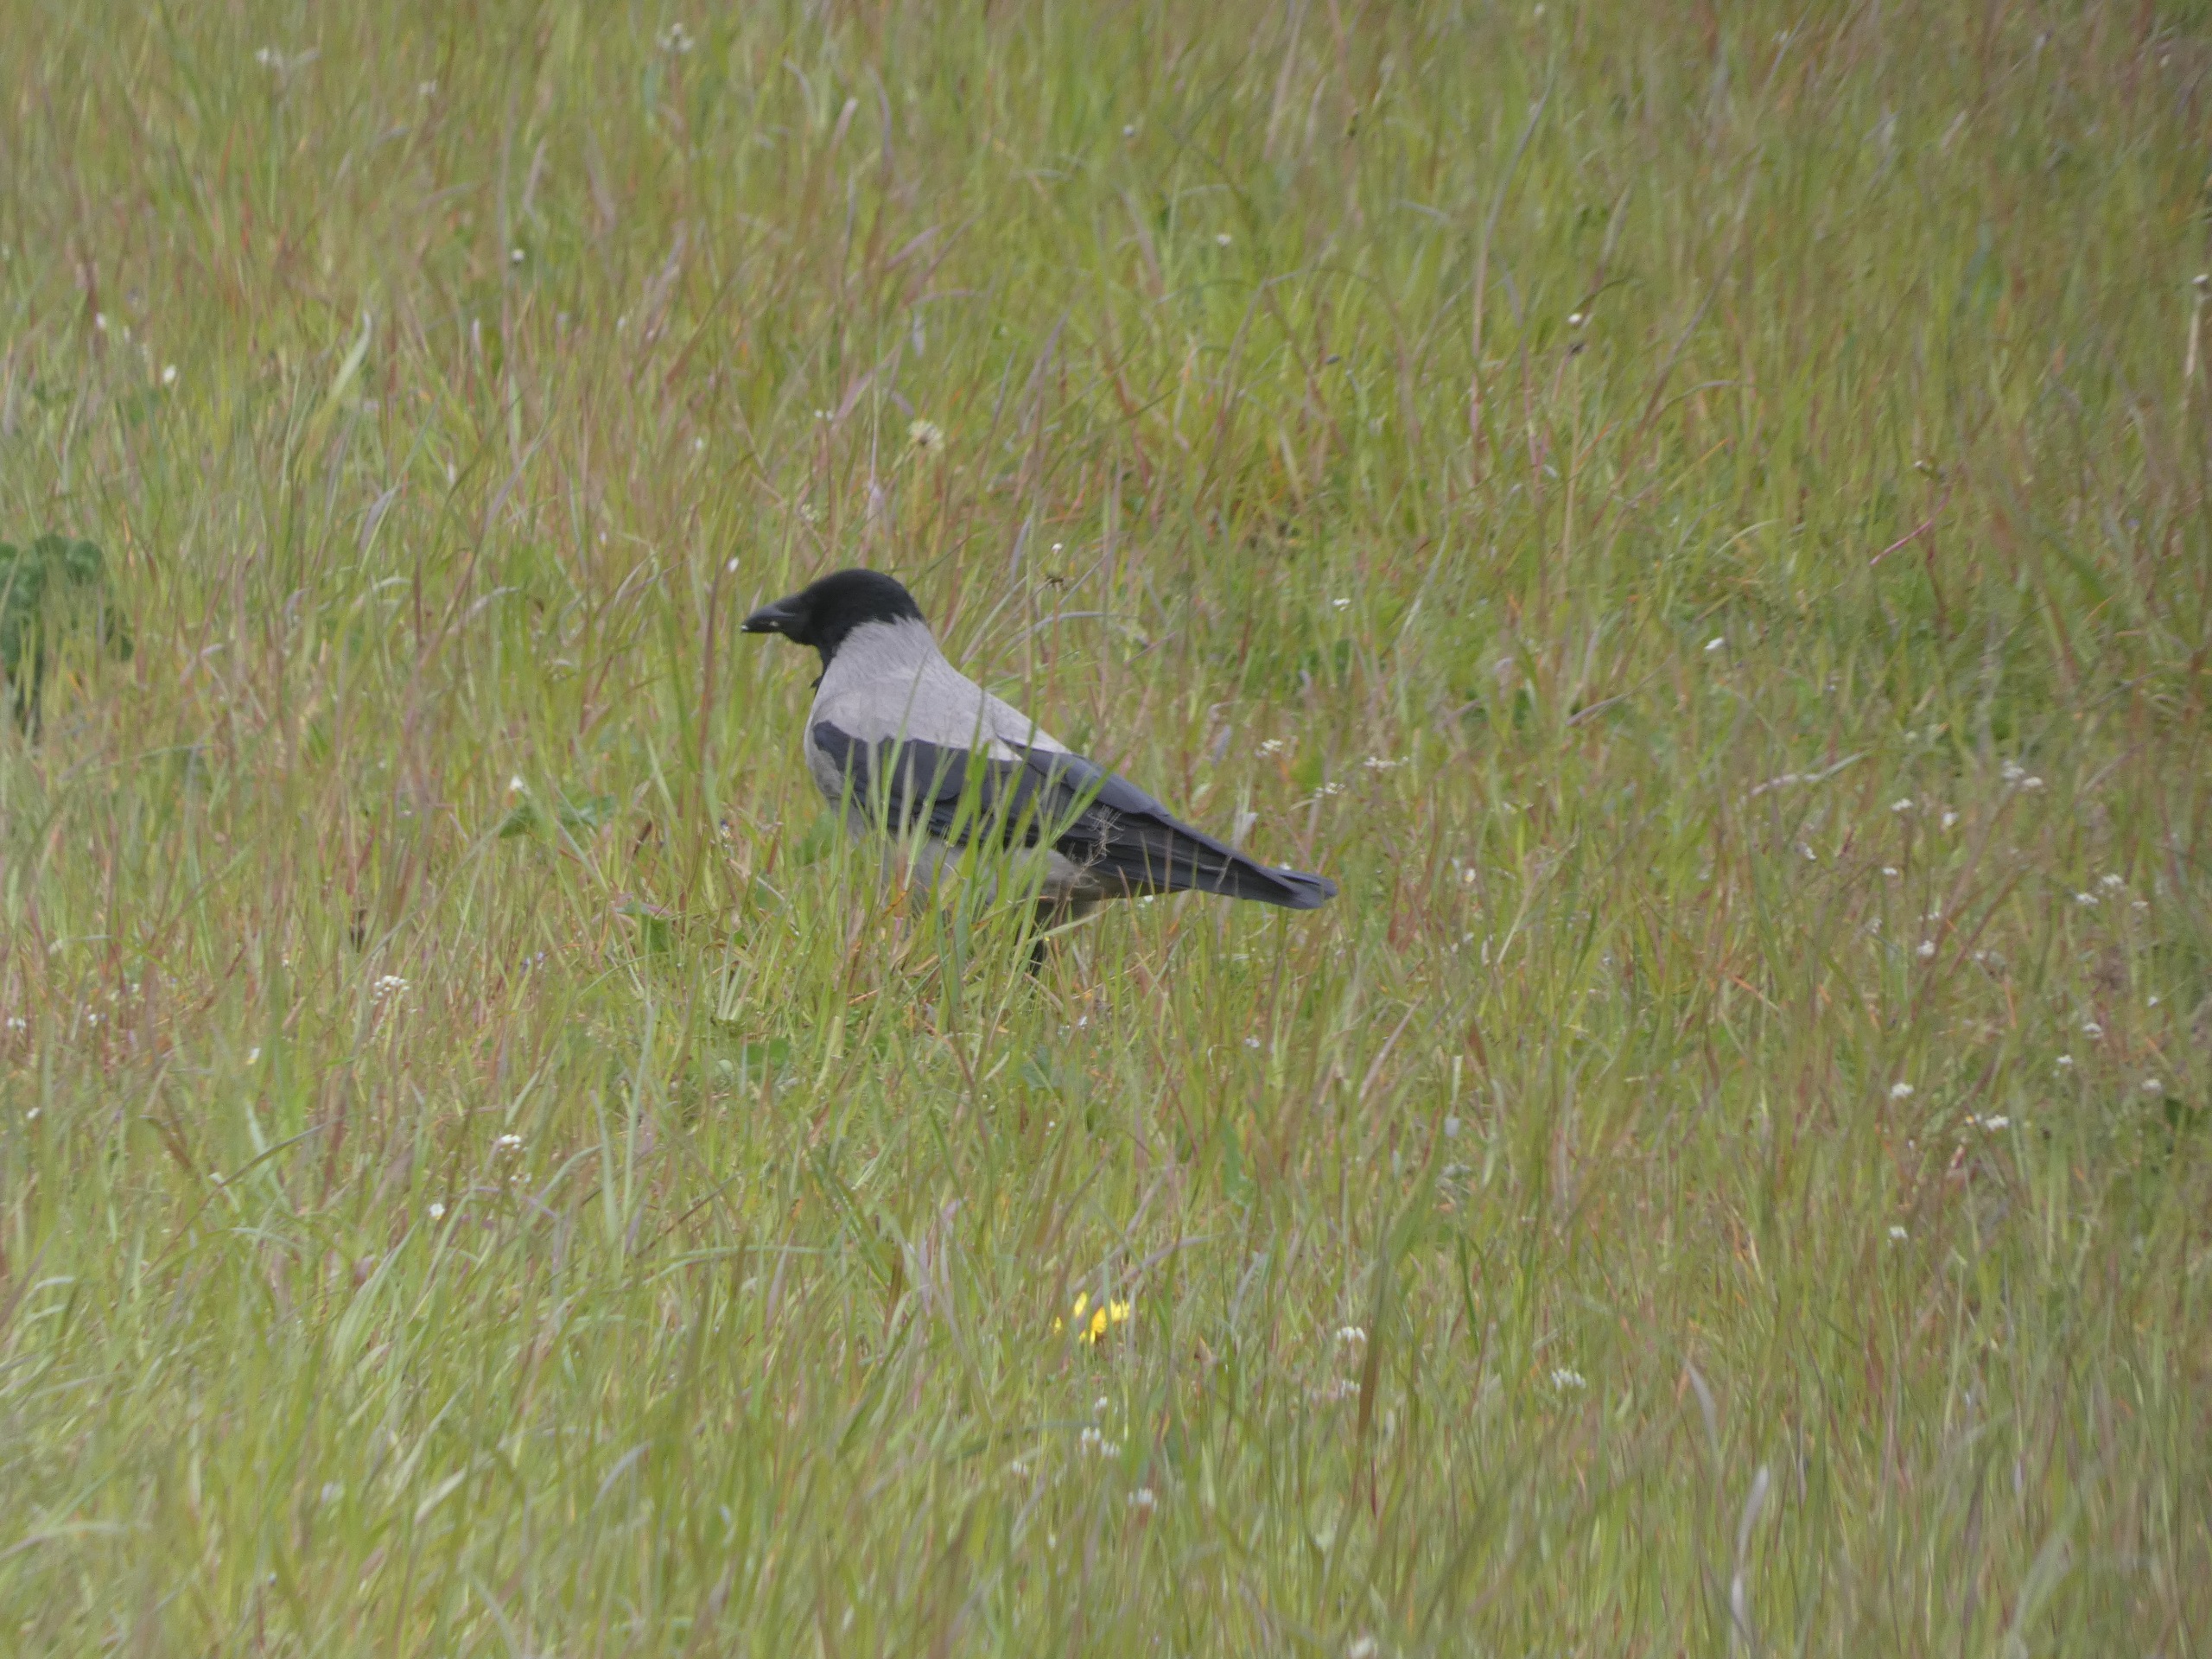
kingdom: Animalia
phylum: Chordata
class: Aves
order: Passeriformes
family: Corvidae
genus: Corvus
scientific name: Corvus cornix
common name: Gråkrage
